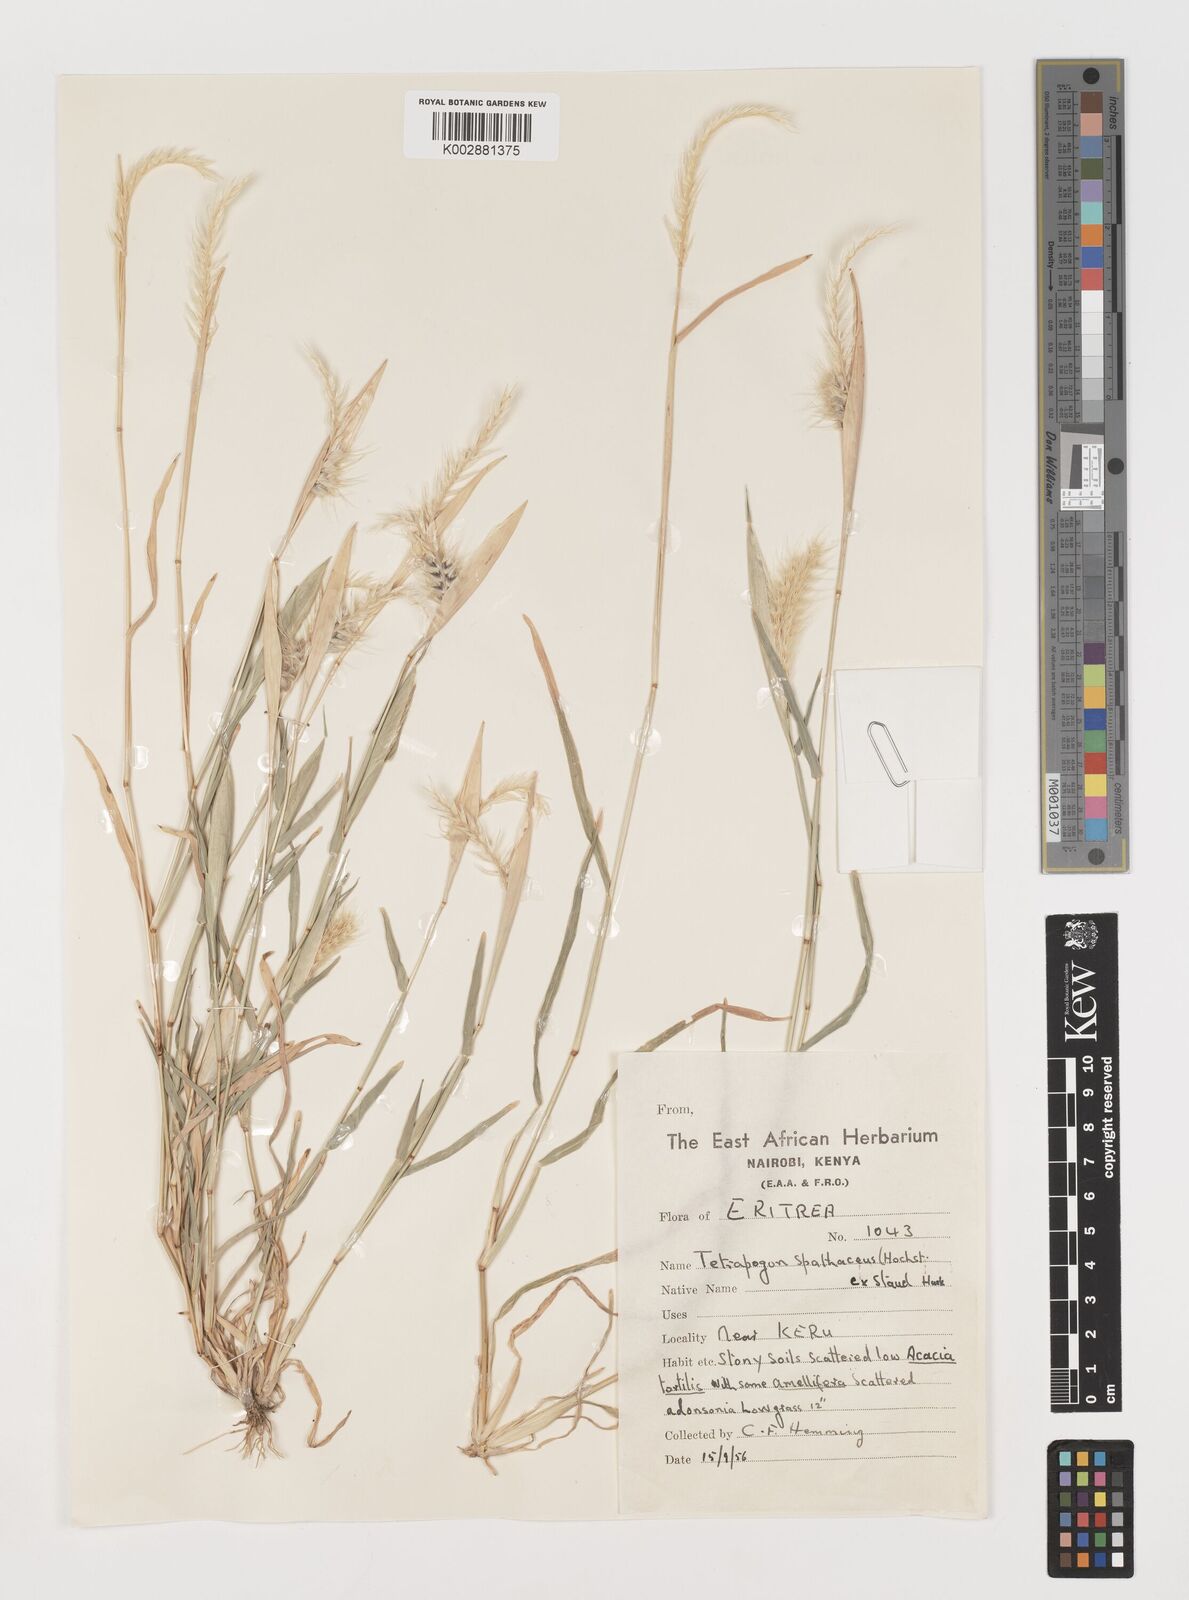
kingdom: Plantae
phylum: Tracheophyta
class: Liliopsida
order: Poales
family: Poaceae
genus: Tetrapogon
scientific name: Tetrapogon cenchriformis
